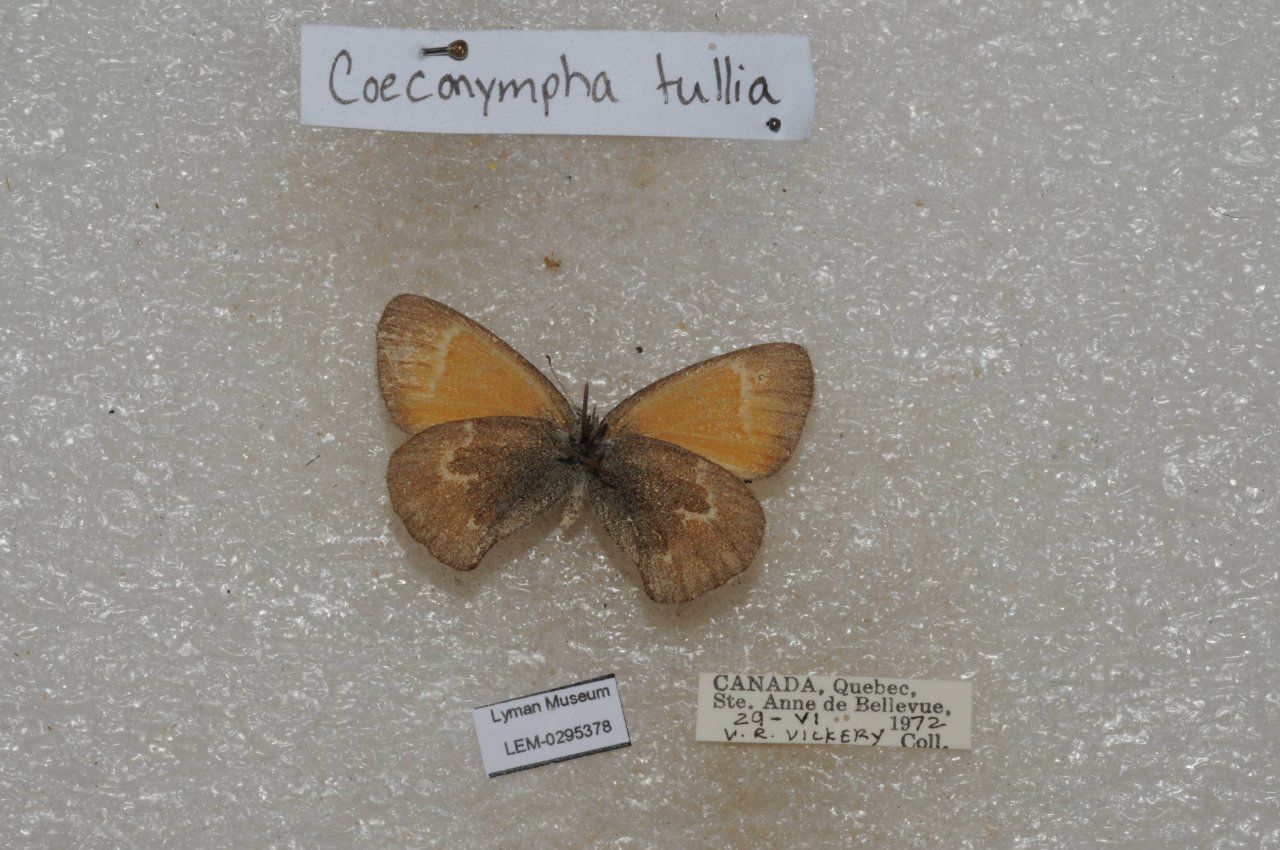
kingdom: Animalia
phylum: Arthropoda
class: Insecta
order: Lepidoptera
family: Nymphalidae
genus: Coenonympha
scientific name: Coenonympha tullia
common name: Large Heath
